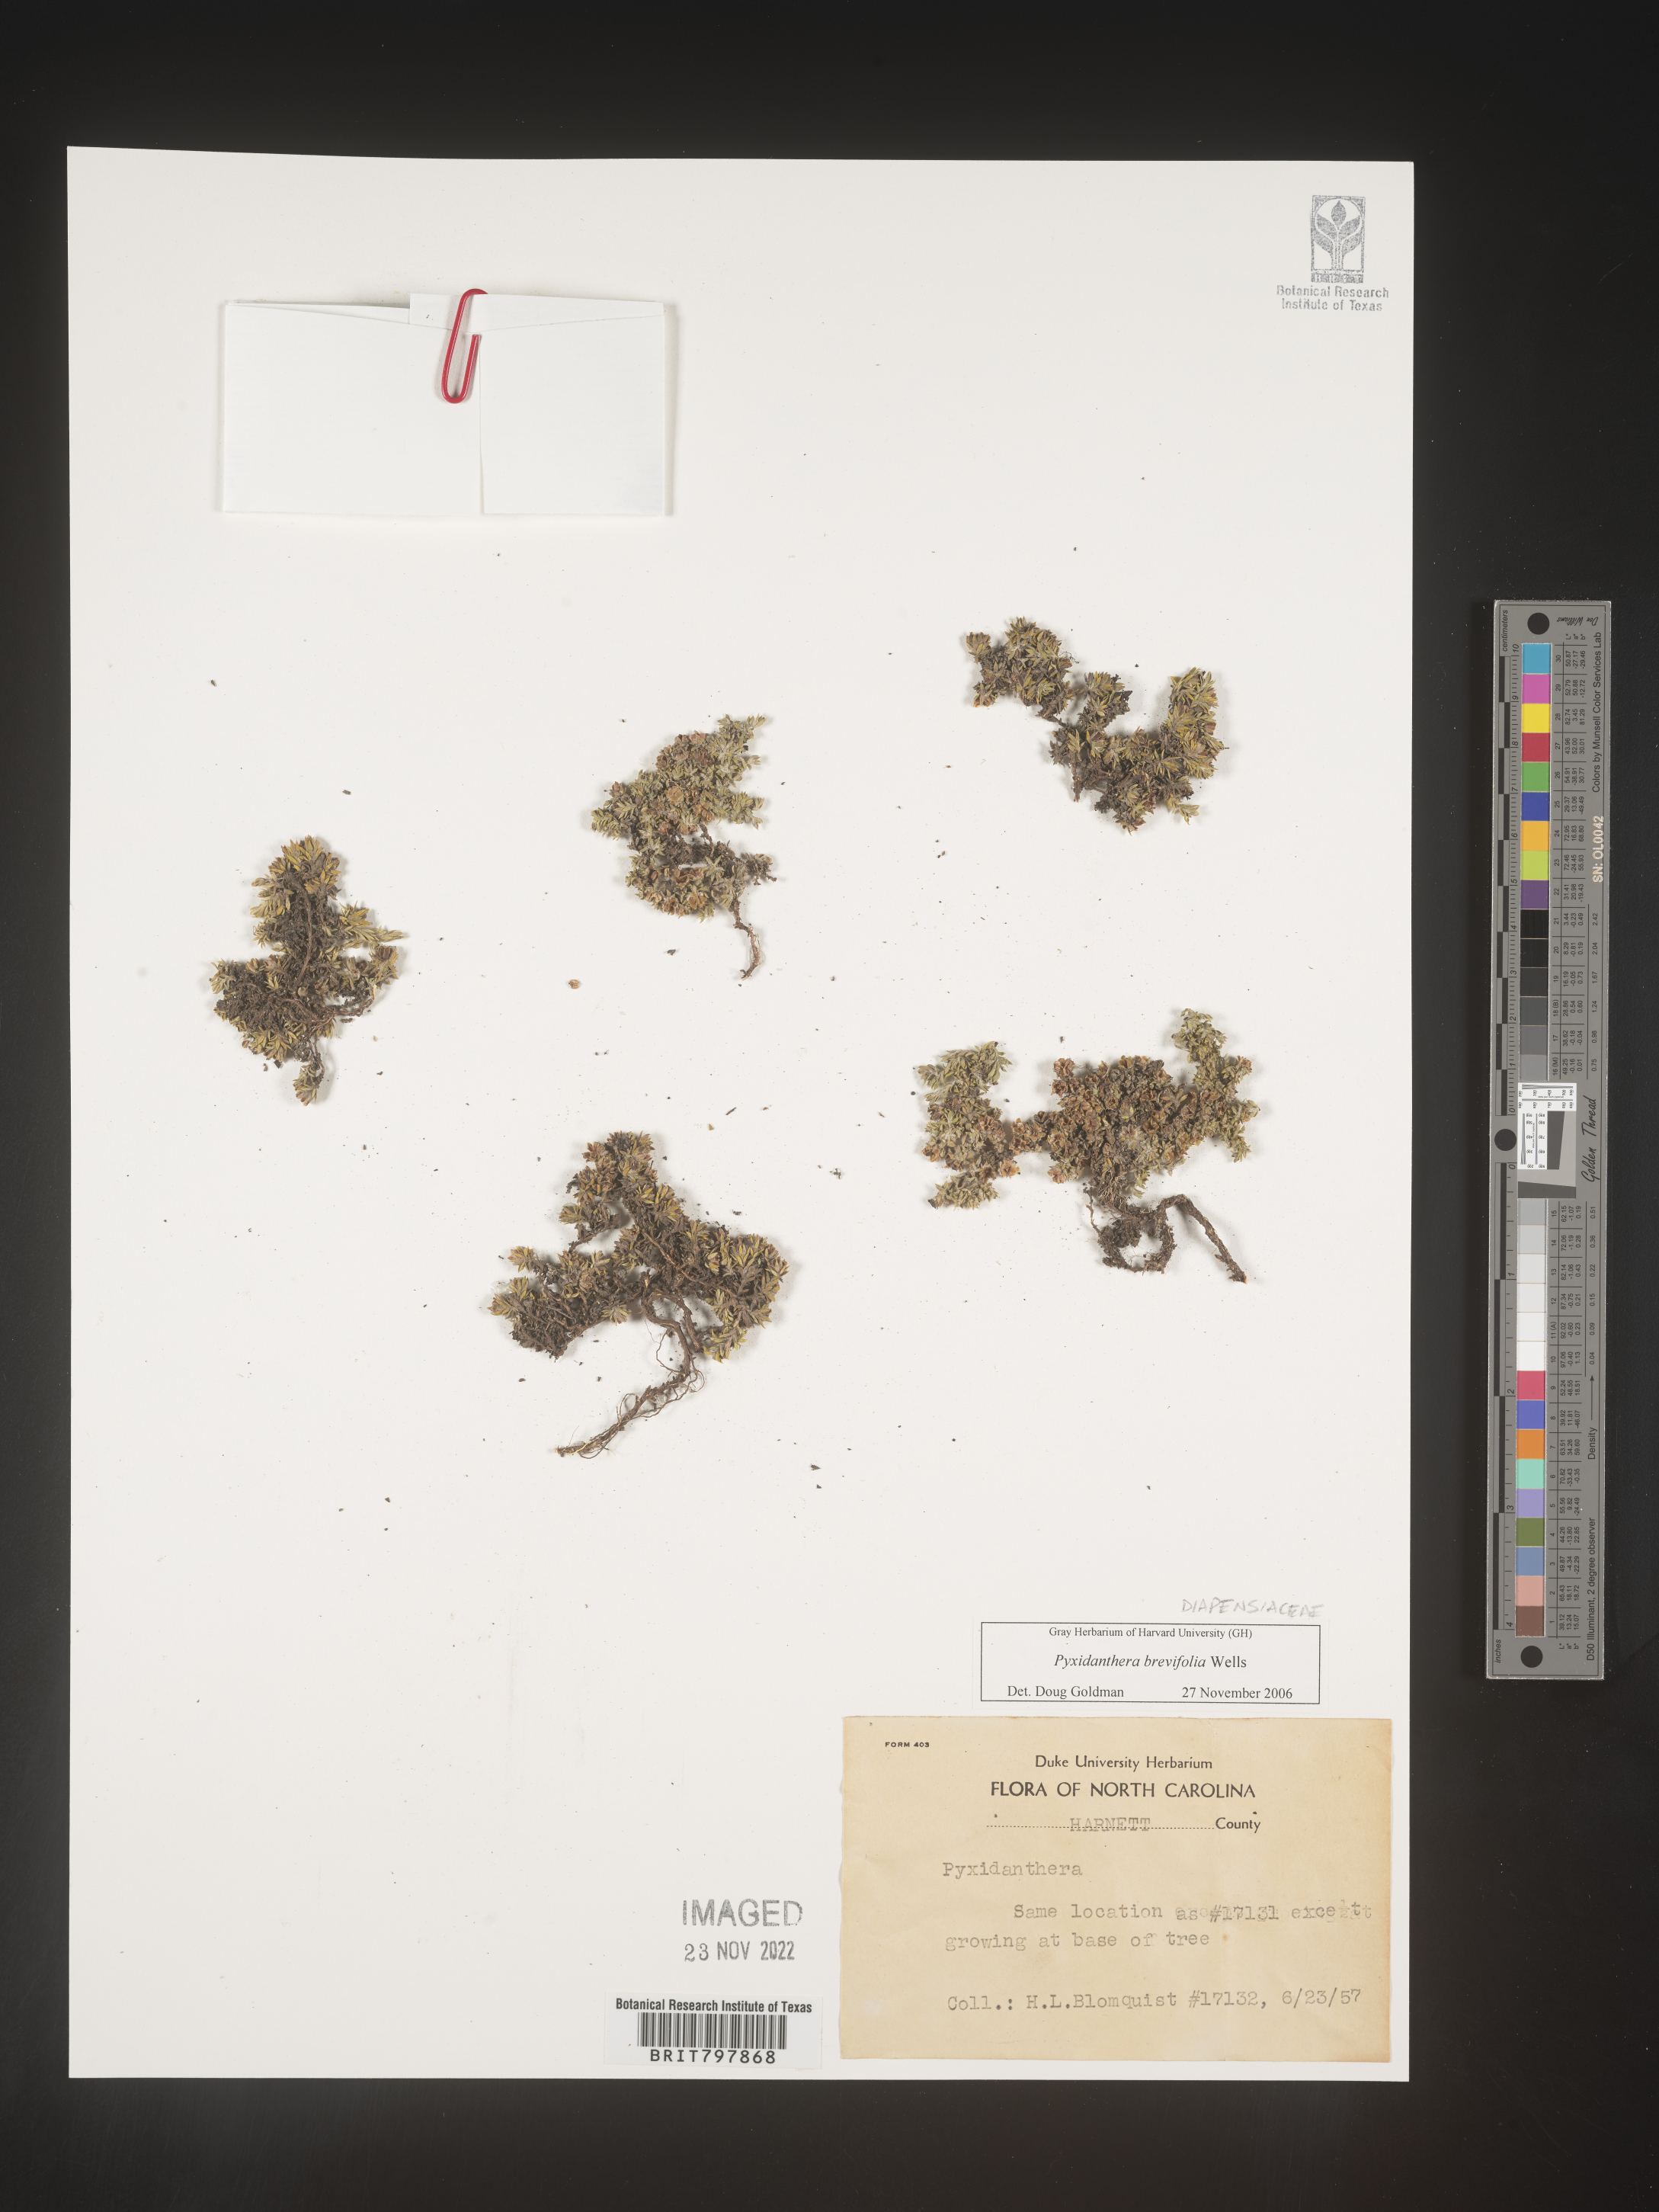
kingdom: Plantae
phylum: Tracheophyta
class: Magnoliopsida
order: Ericales
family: Diapensiaceae
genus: Pyxidanthera
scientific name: Pyxidanthera brevifolia
